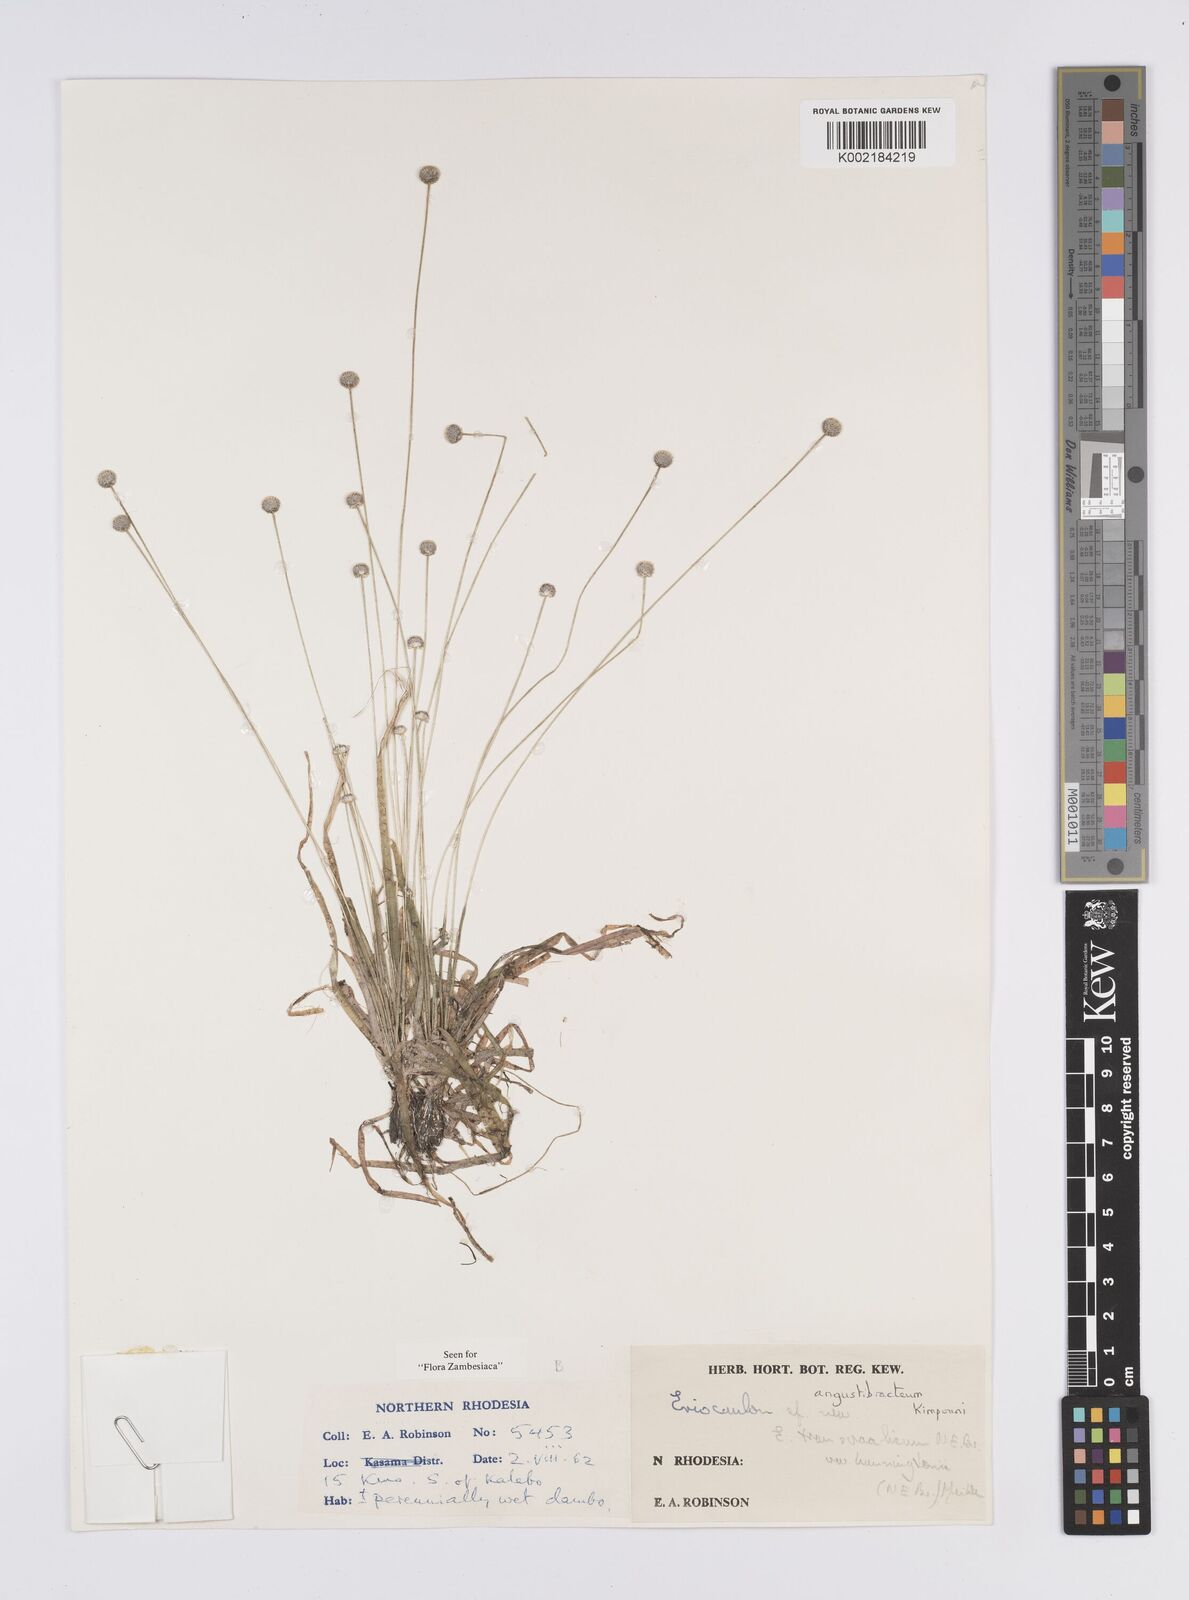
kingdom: Plantae
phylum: Tracheophyta
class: Liliopsida
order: Poales
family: Eriocaulaceae
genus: Eriocaulon
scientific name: Eriocaulon angustibracteum
